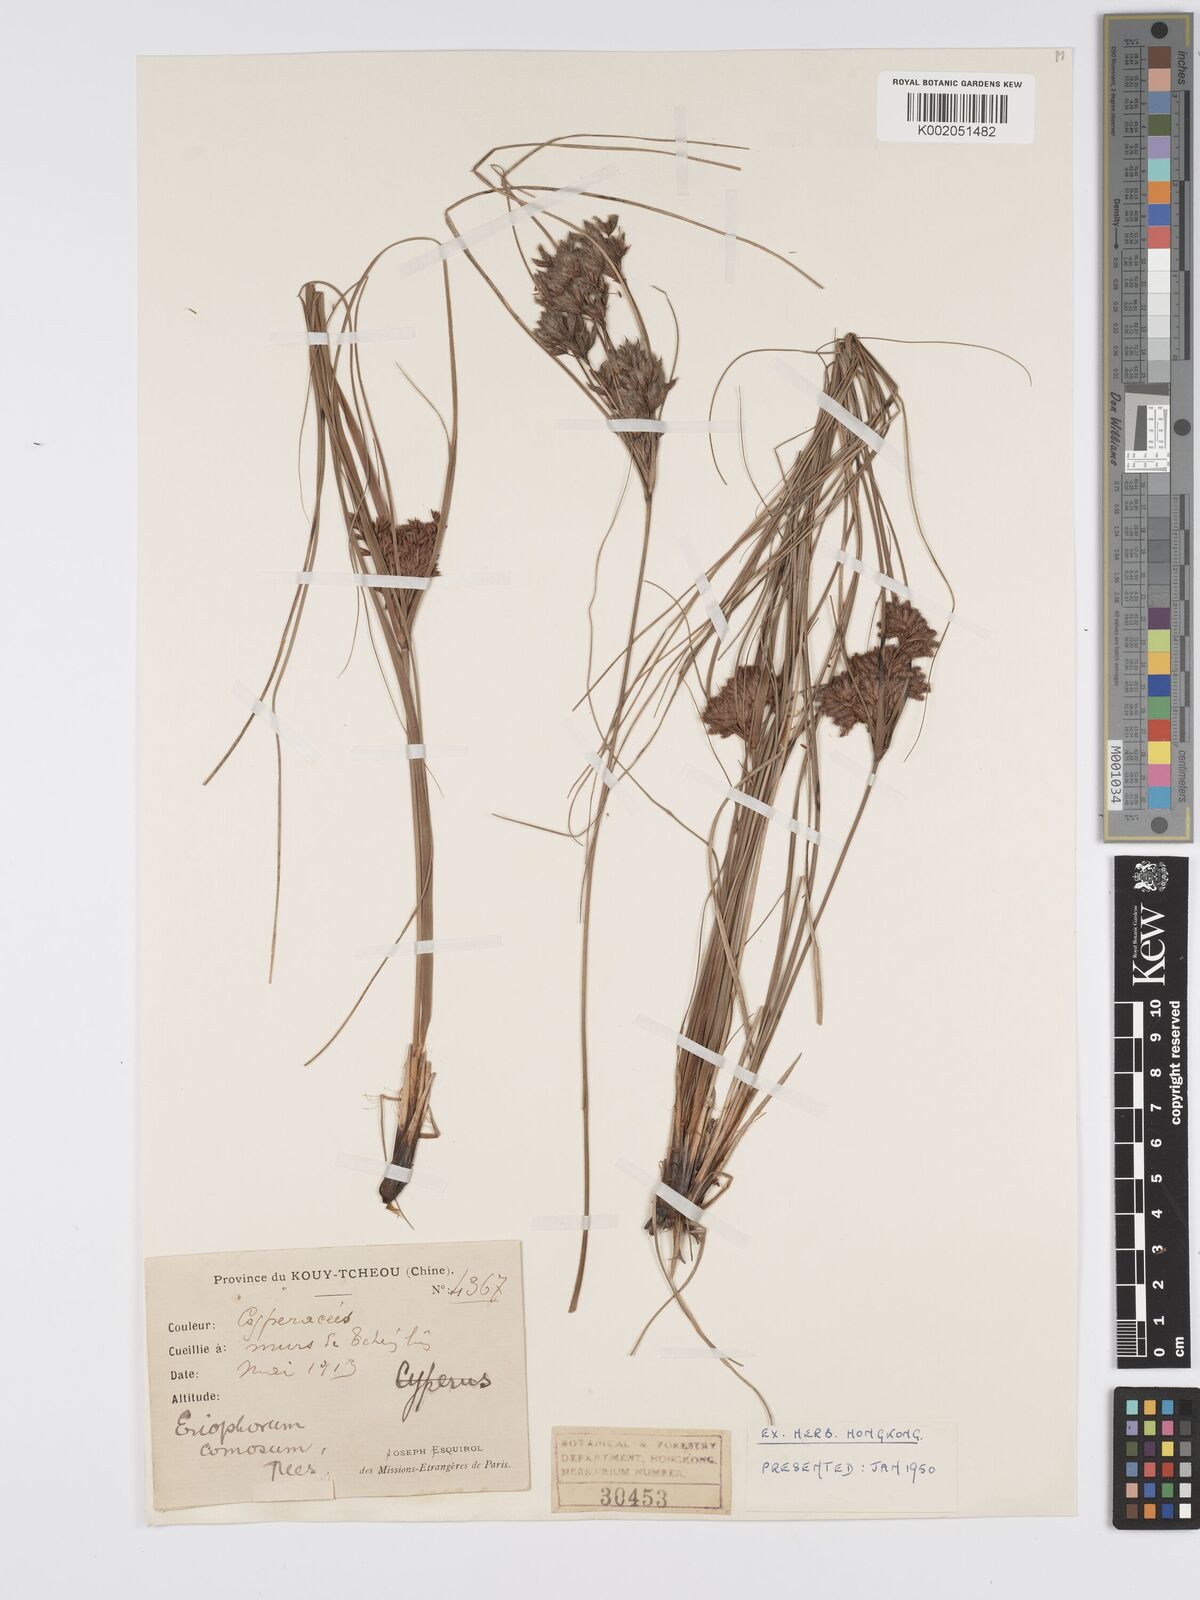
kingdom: Plantae
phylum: Tracheophyta
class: Liliopsida
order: Poales
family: Cyperaceae
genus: Erioscirpus
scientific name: Erioscirpus comosus
